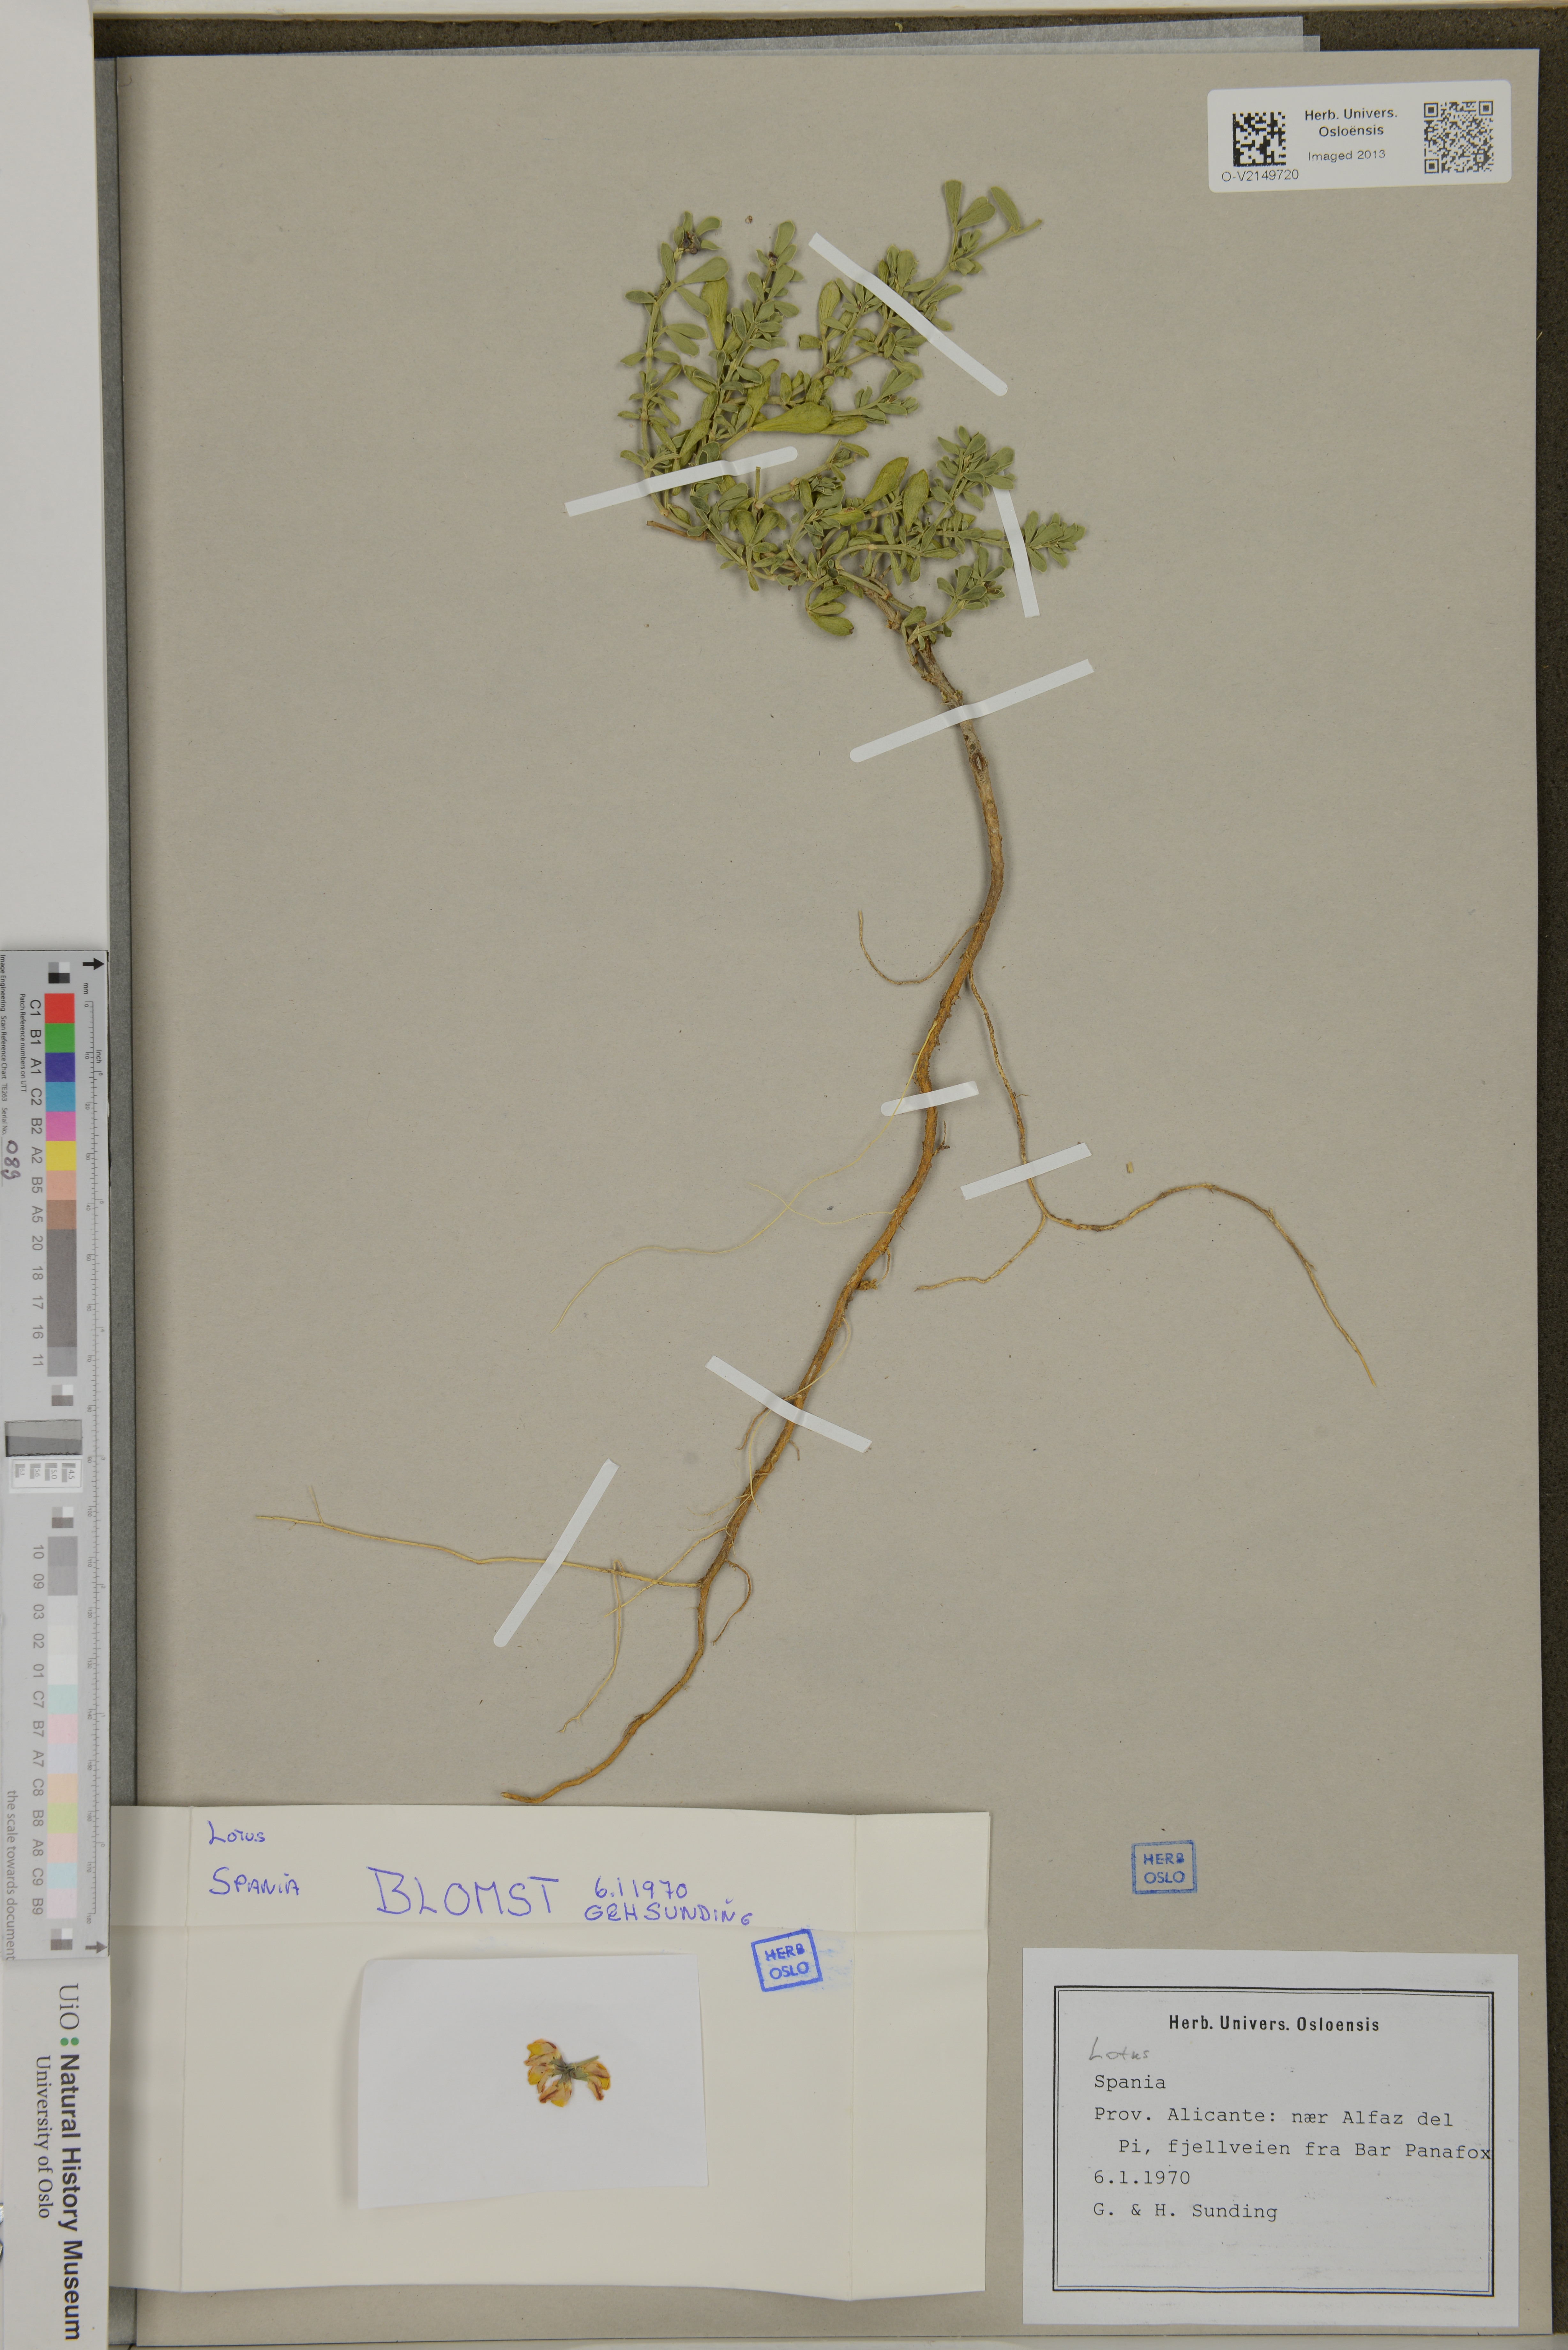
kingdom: Plantae
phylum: Tracheophyta
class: Magnoliopsida
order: Fabales
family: Fabaceae
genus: Lotus
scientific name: Lotus
